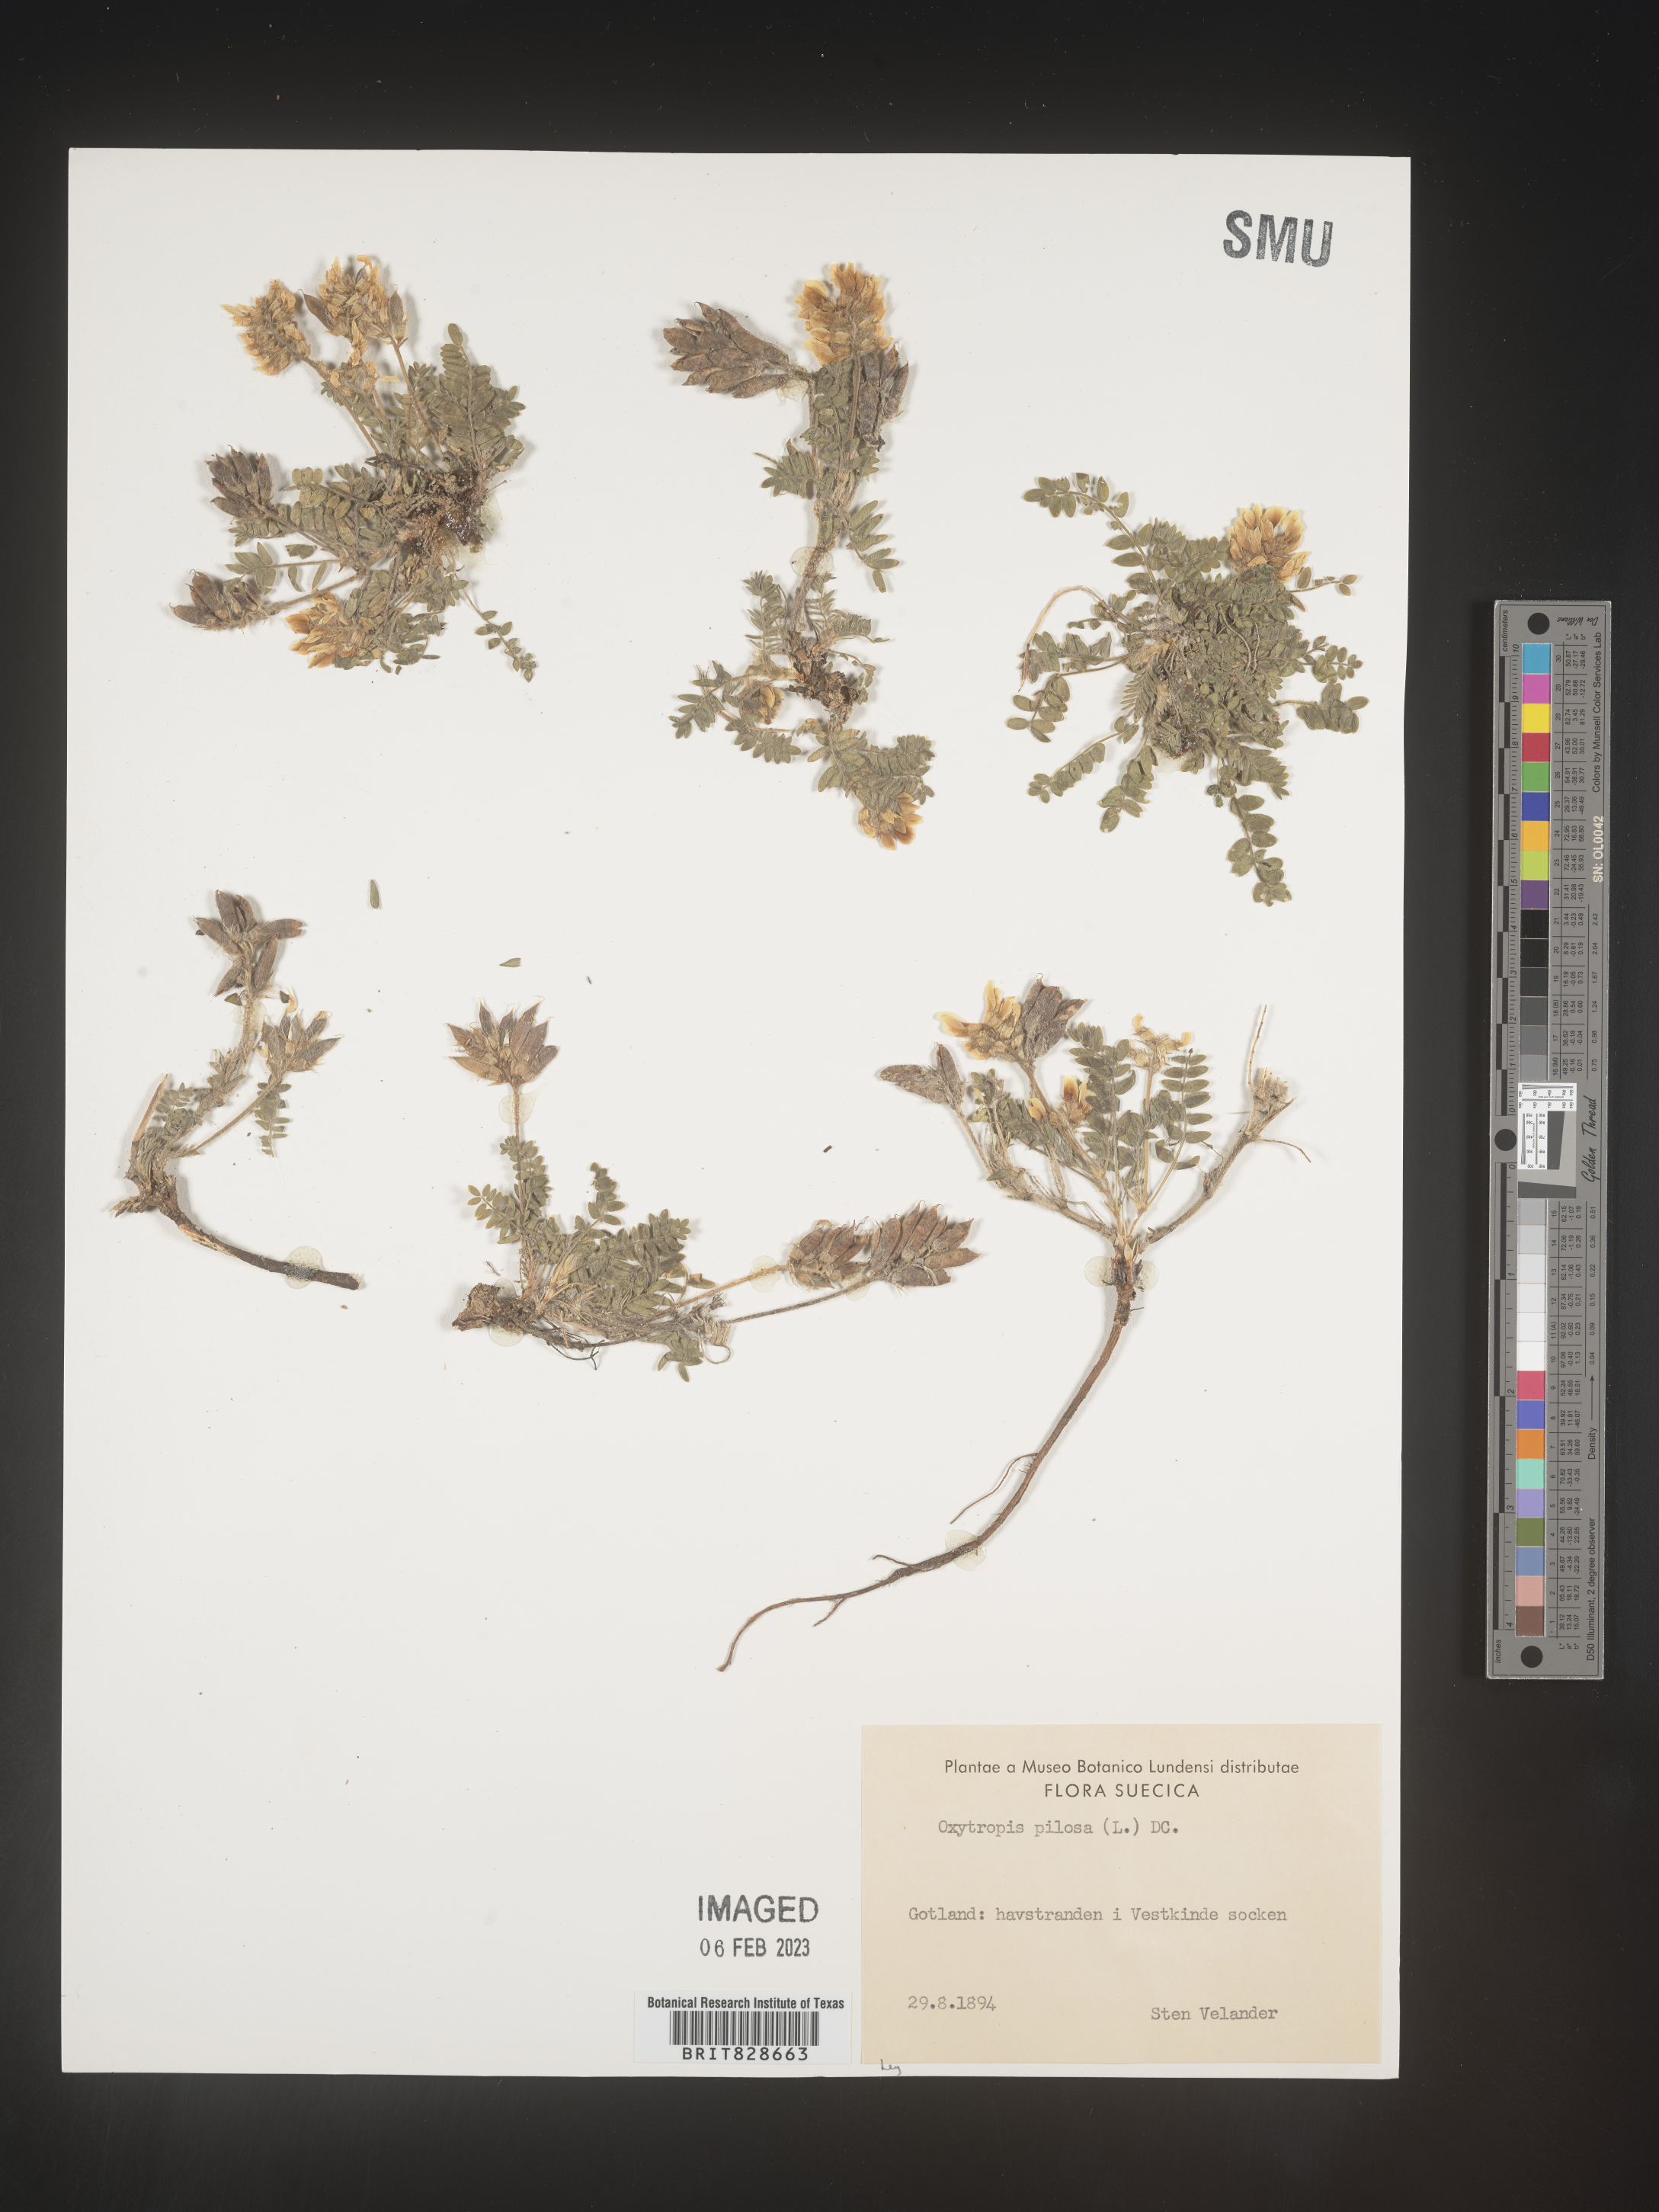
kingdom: Plantae
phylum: Tracheophyta
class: Magnoliopsida
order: Fabales
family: Fabaceae
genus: Oxytropis
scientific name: Oxytropis
